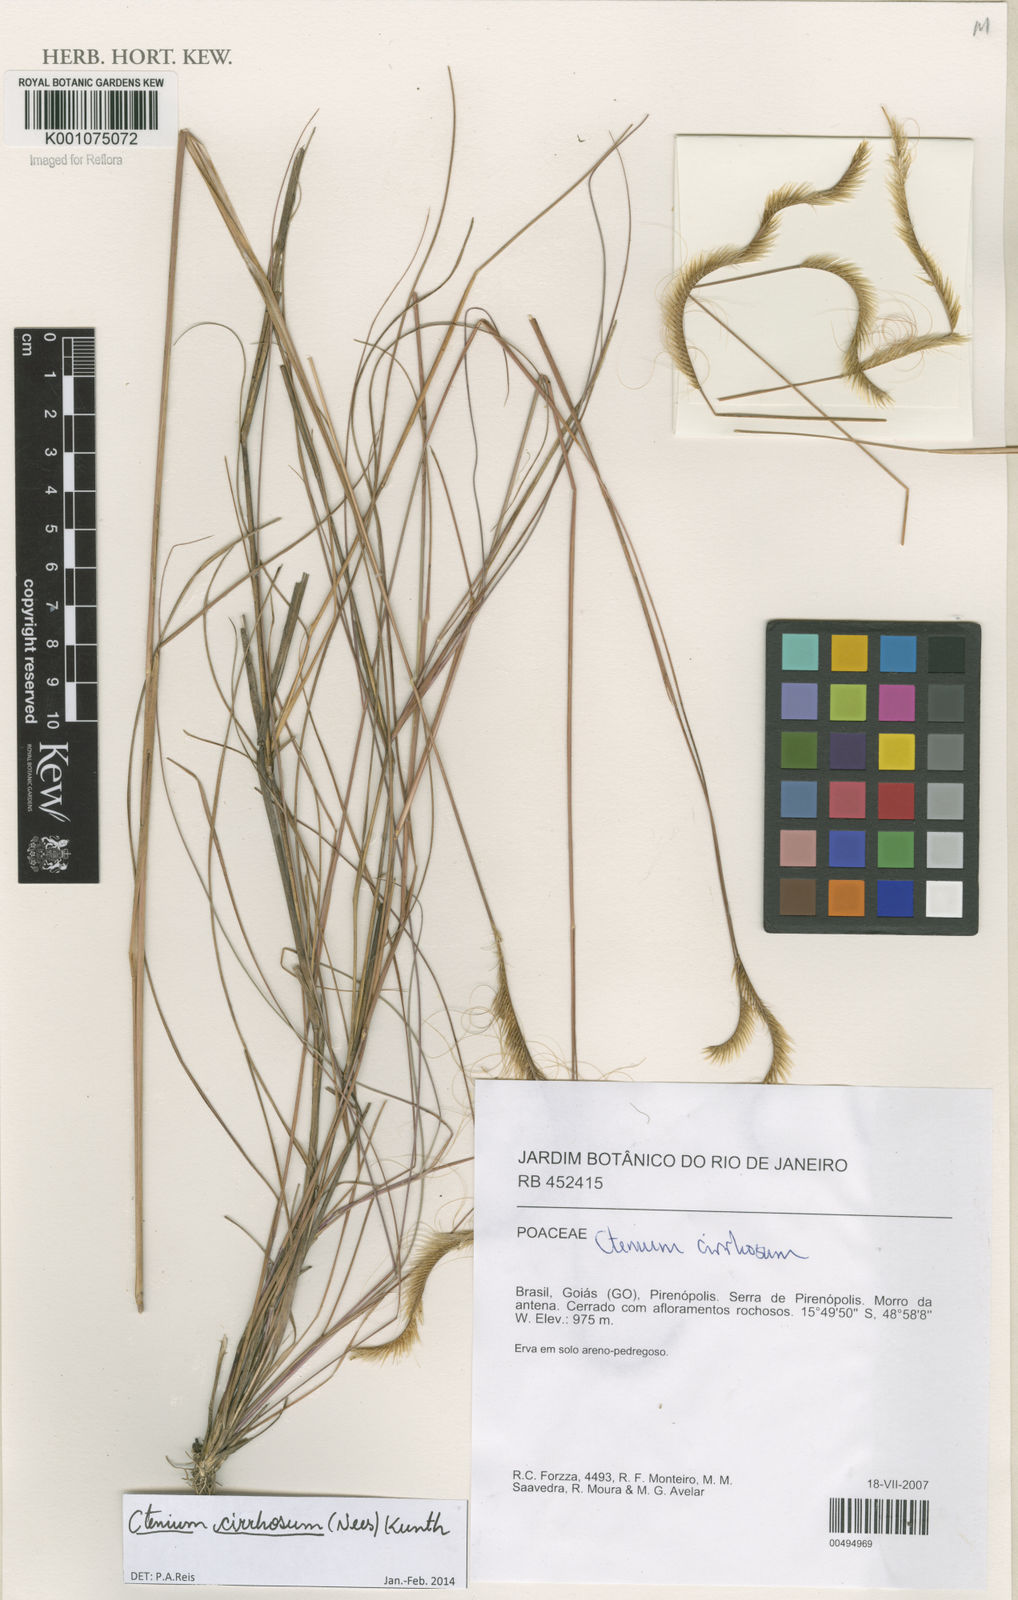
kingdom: Plantae
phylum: Tracheophyta
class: Liliopsida
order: Poales
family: Poaceae
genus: Ctenium
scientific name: Ctenium cirrhosum
